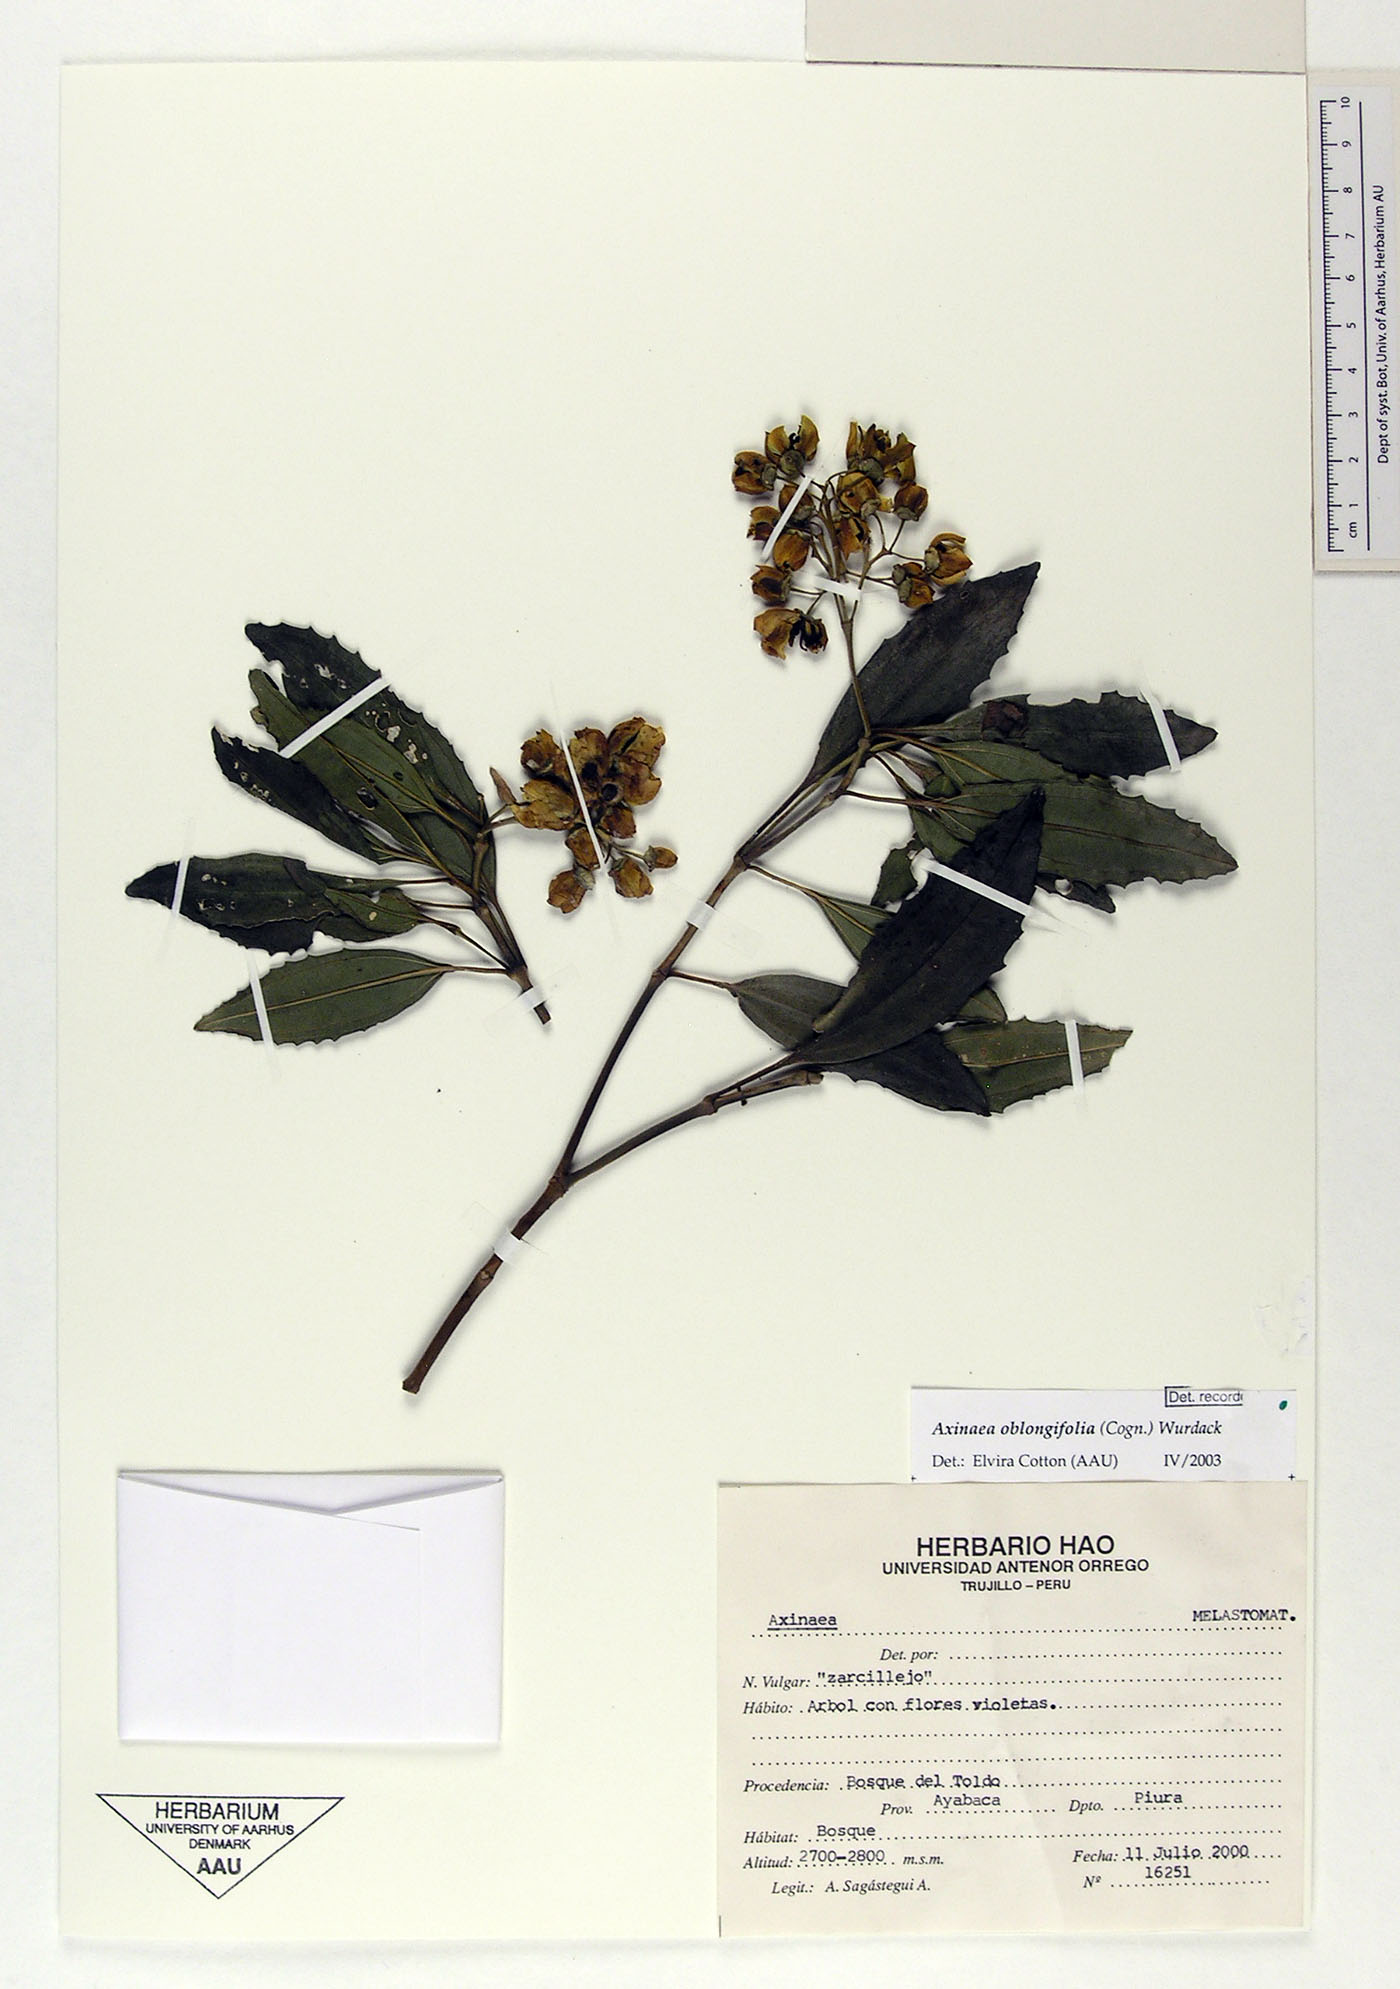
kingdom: Plantae
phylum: Tracheophyta
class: Magnoliopsida
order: Myrtales
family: Melastomataceae
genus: Axinaea
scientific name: Axinaea oblongifolia
